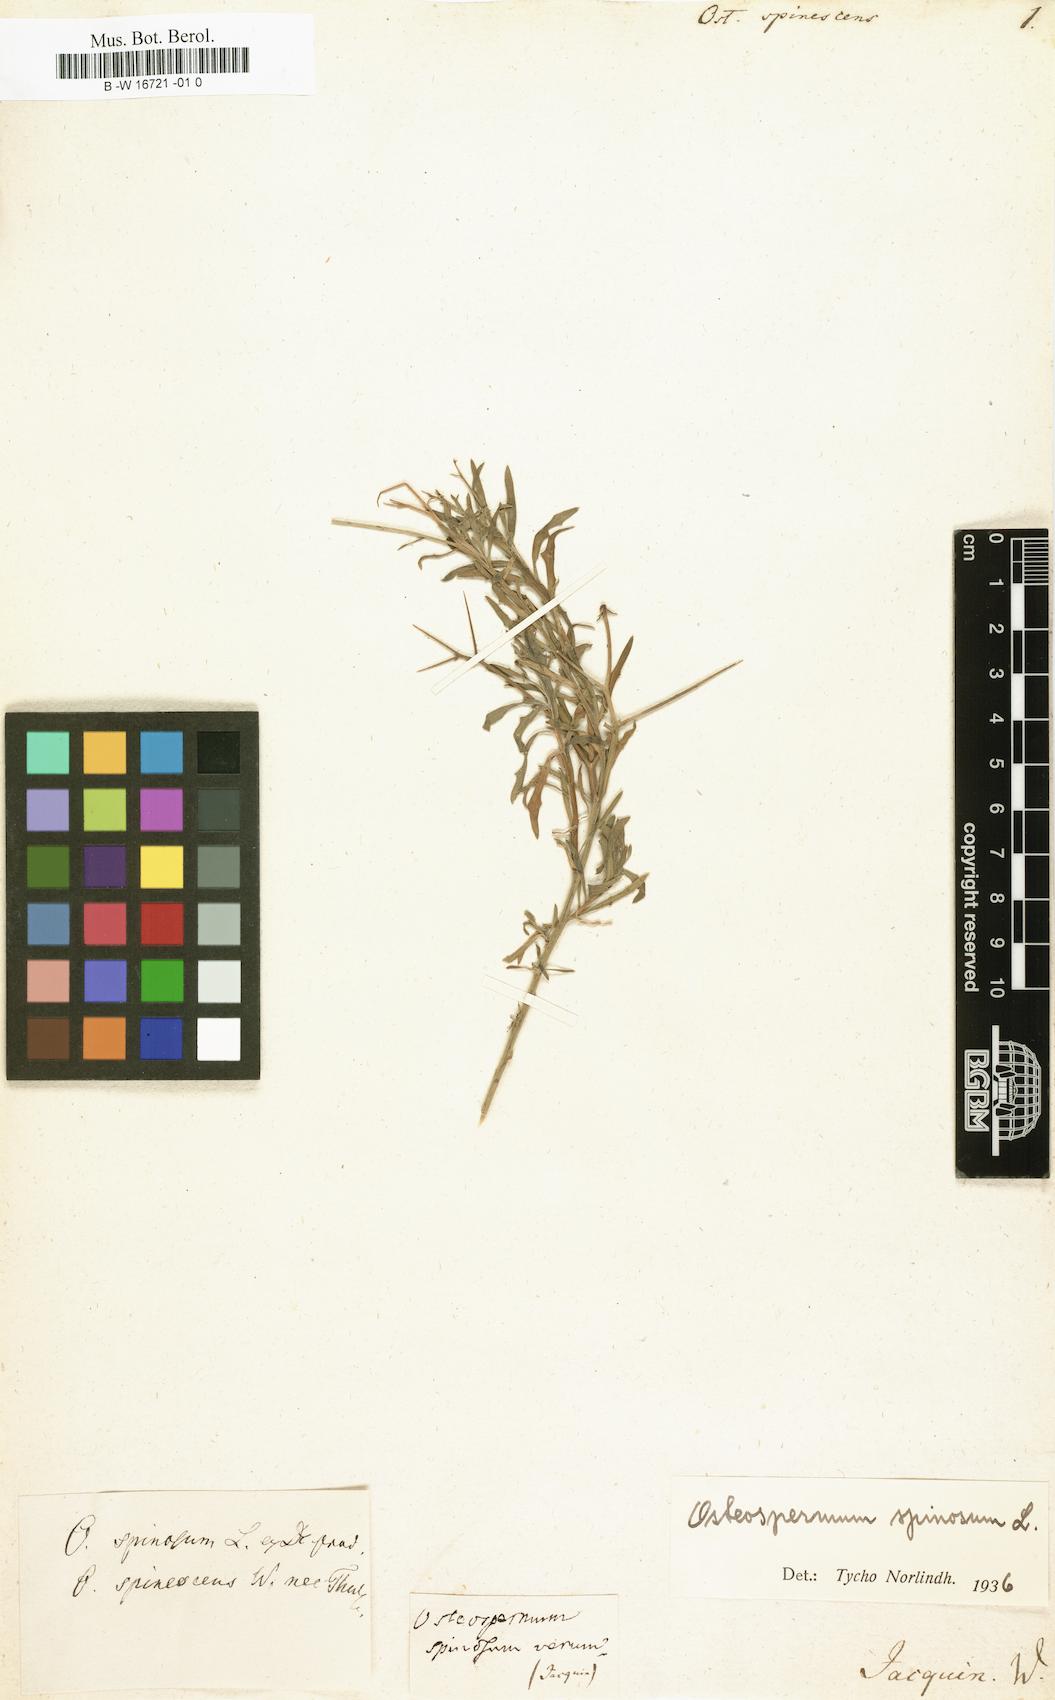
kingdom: Plantae
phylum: Tracheophyta
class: Magnoliopsida
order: Asterales
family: Asteraceae
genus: Osteospermum
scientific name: Osteospermum spinescens
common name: Sunflower
